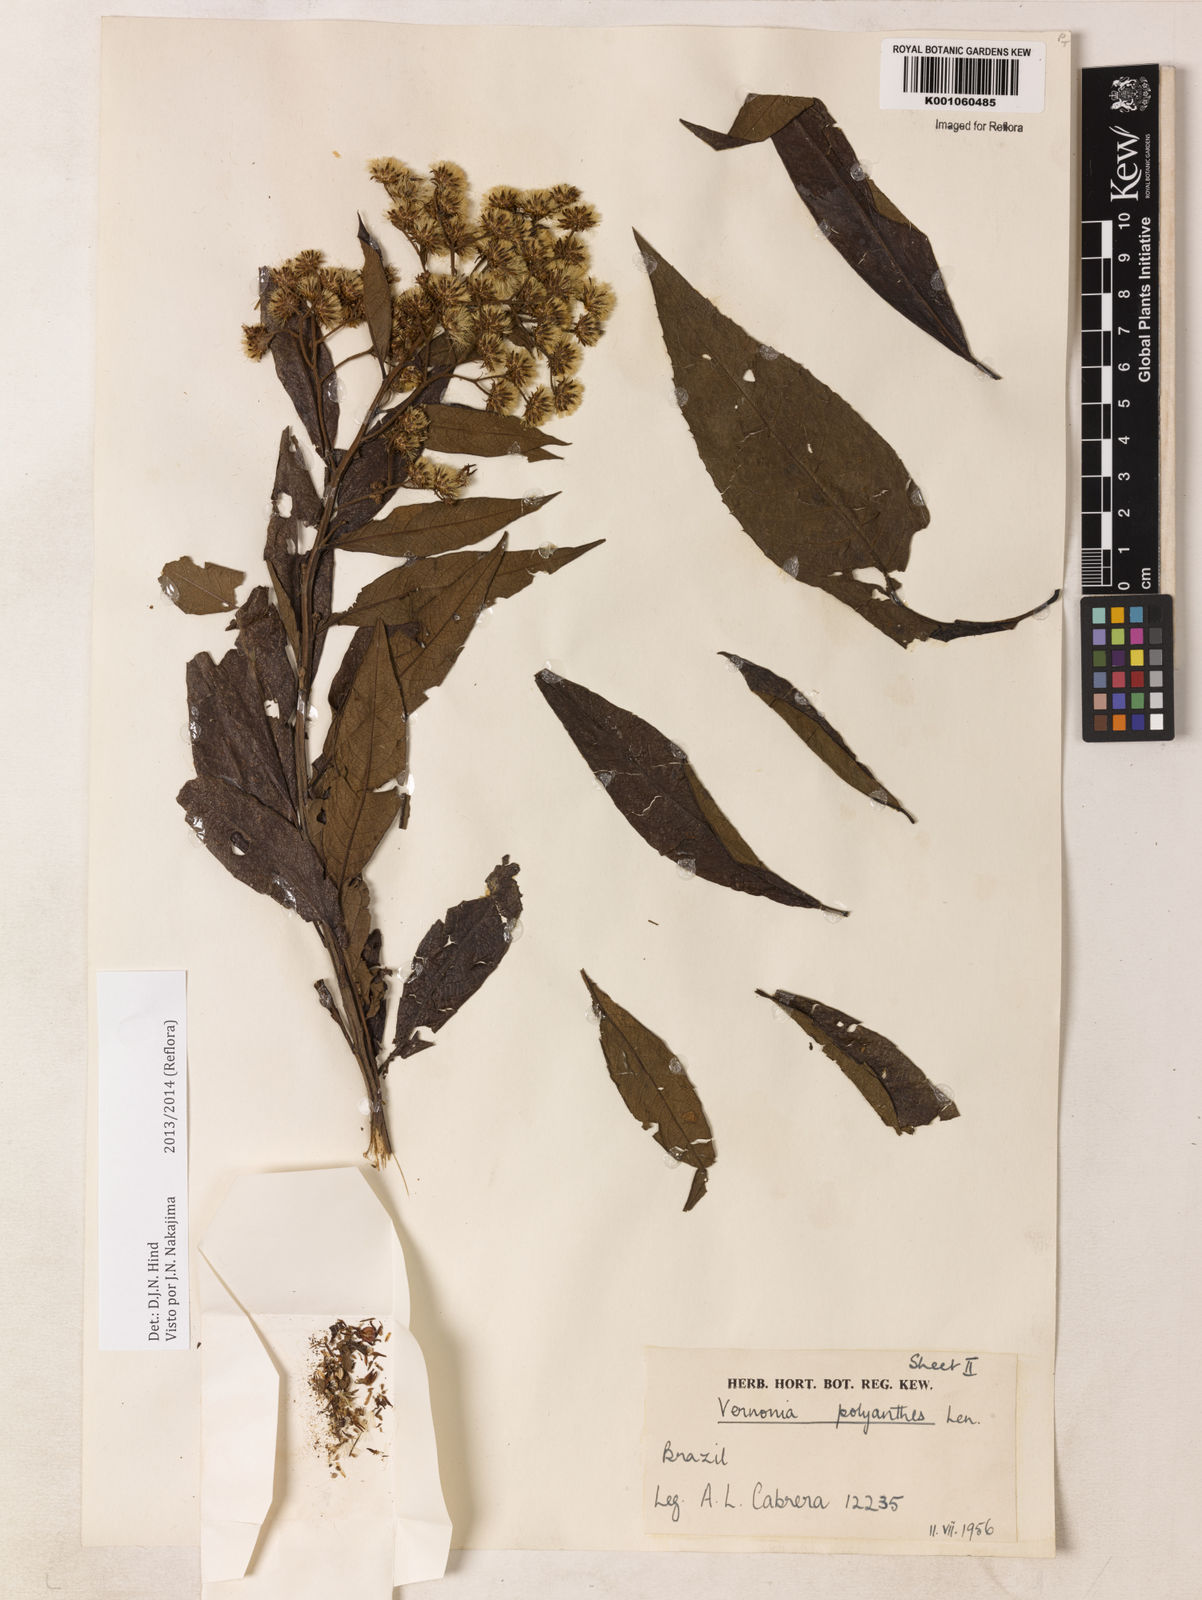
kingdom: Plantae
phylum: Tracheophyta
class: Magnoliopsida
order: Asterales
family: Asteraceae
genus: Vernonanthura
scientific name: Vernonanthura polyanthes
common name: Tree aster
